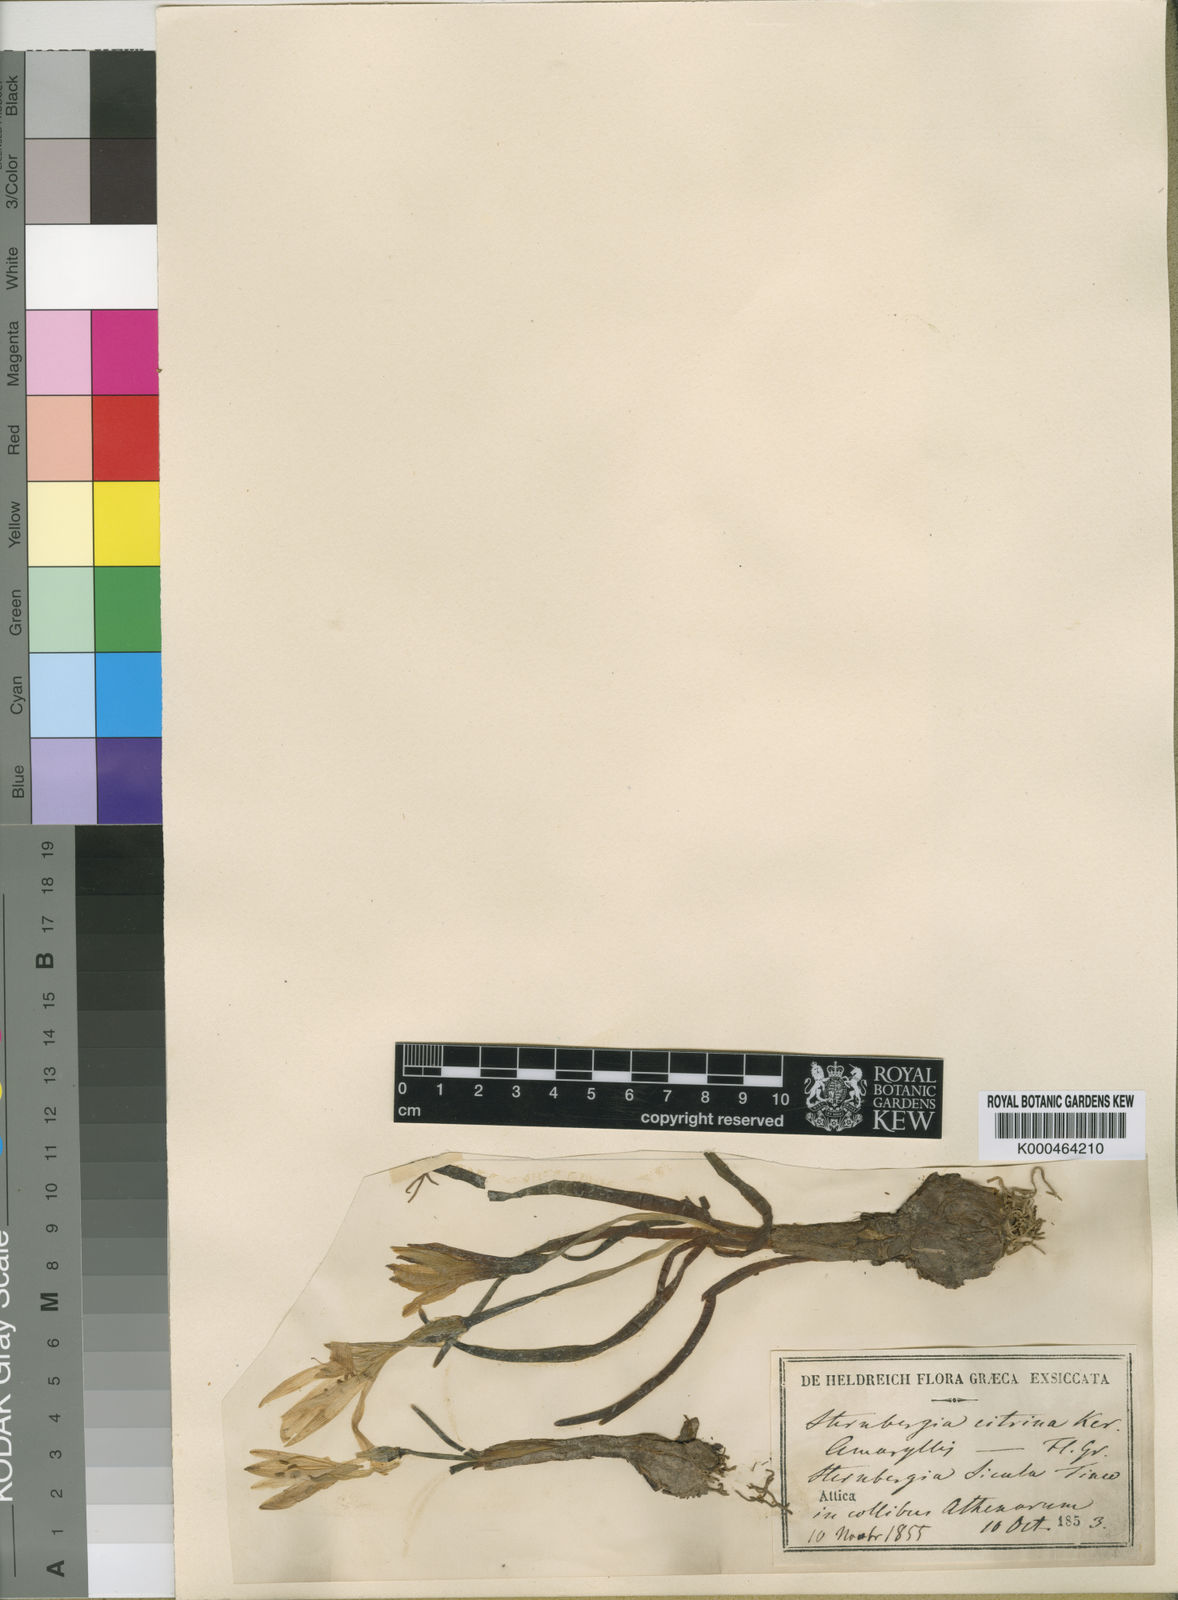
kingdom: Plantae
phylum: Tracheophyta
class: Liliopsida
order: Asparagales
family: Amaryllidaceae
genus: Sternbergia
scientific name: Sternbergia
